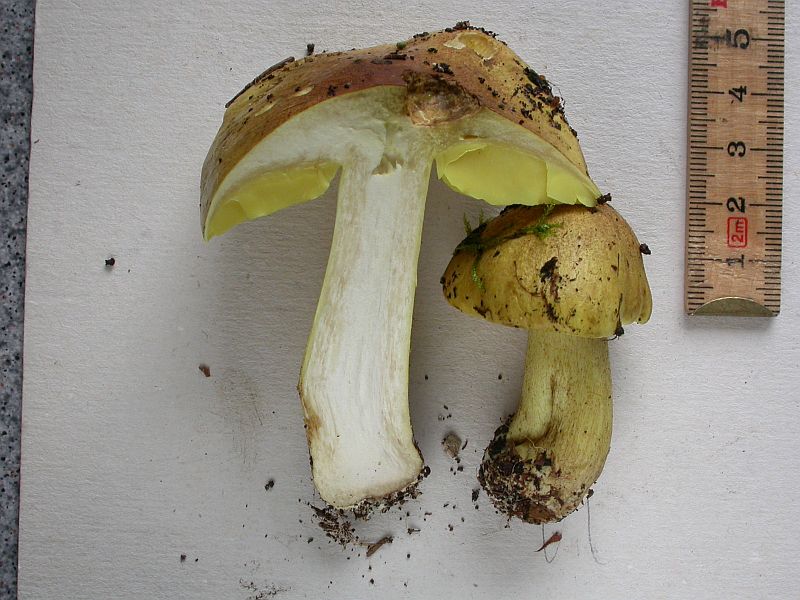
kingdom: Fungi
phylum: Basidiomycota
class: Agaricomycetes
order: Agaricales
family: Tricholomataceae
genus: Tricholoma
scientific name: Tricholoma equestre
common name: ægte ridderhat
